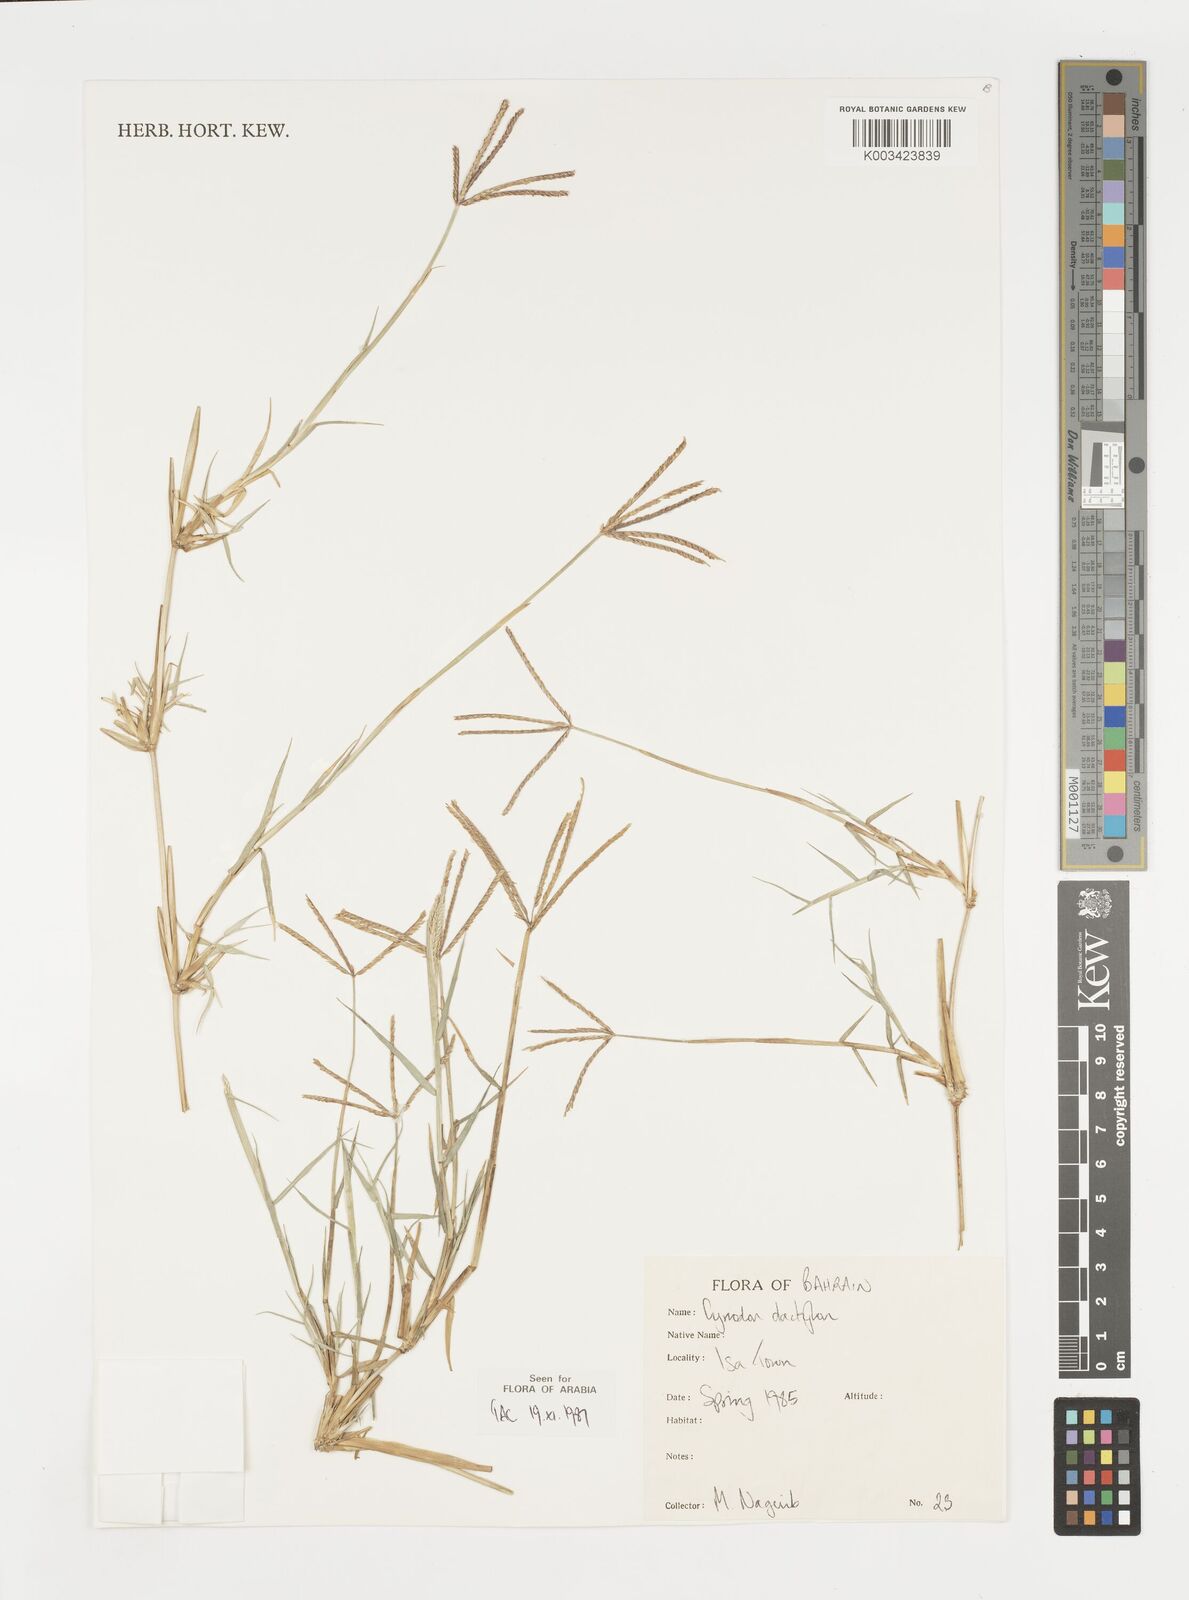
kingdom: Plantae
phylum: Tracheophyta
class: Liliopsida
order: Poales
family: Poaceae
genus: Cynodon
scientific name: Cynodon dactylon
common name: Bermuda grass
